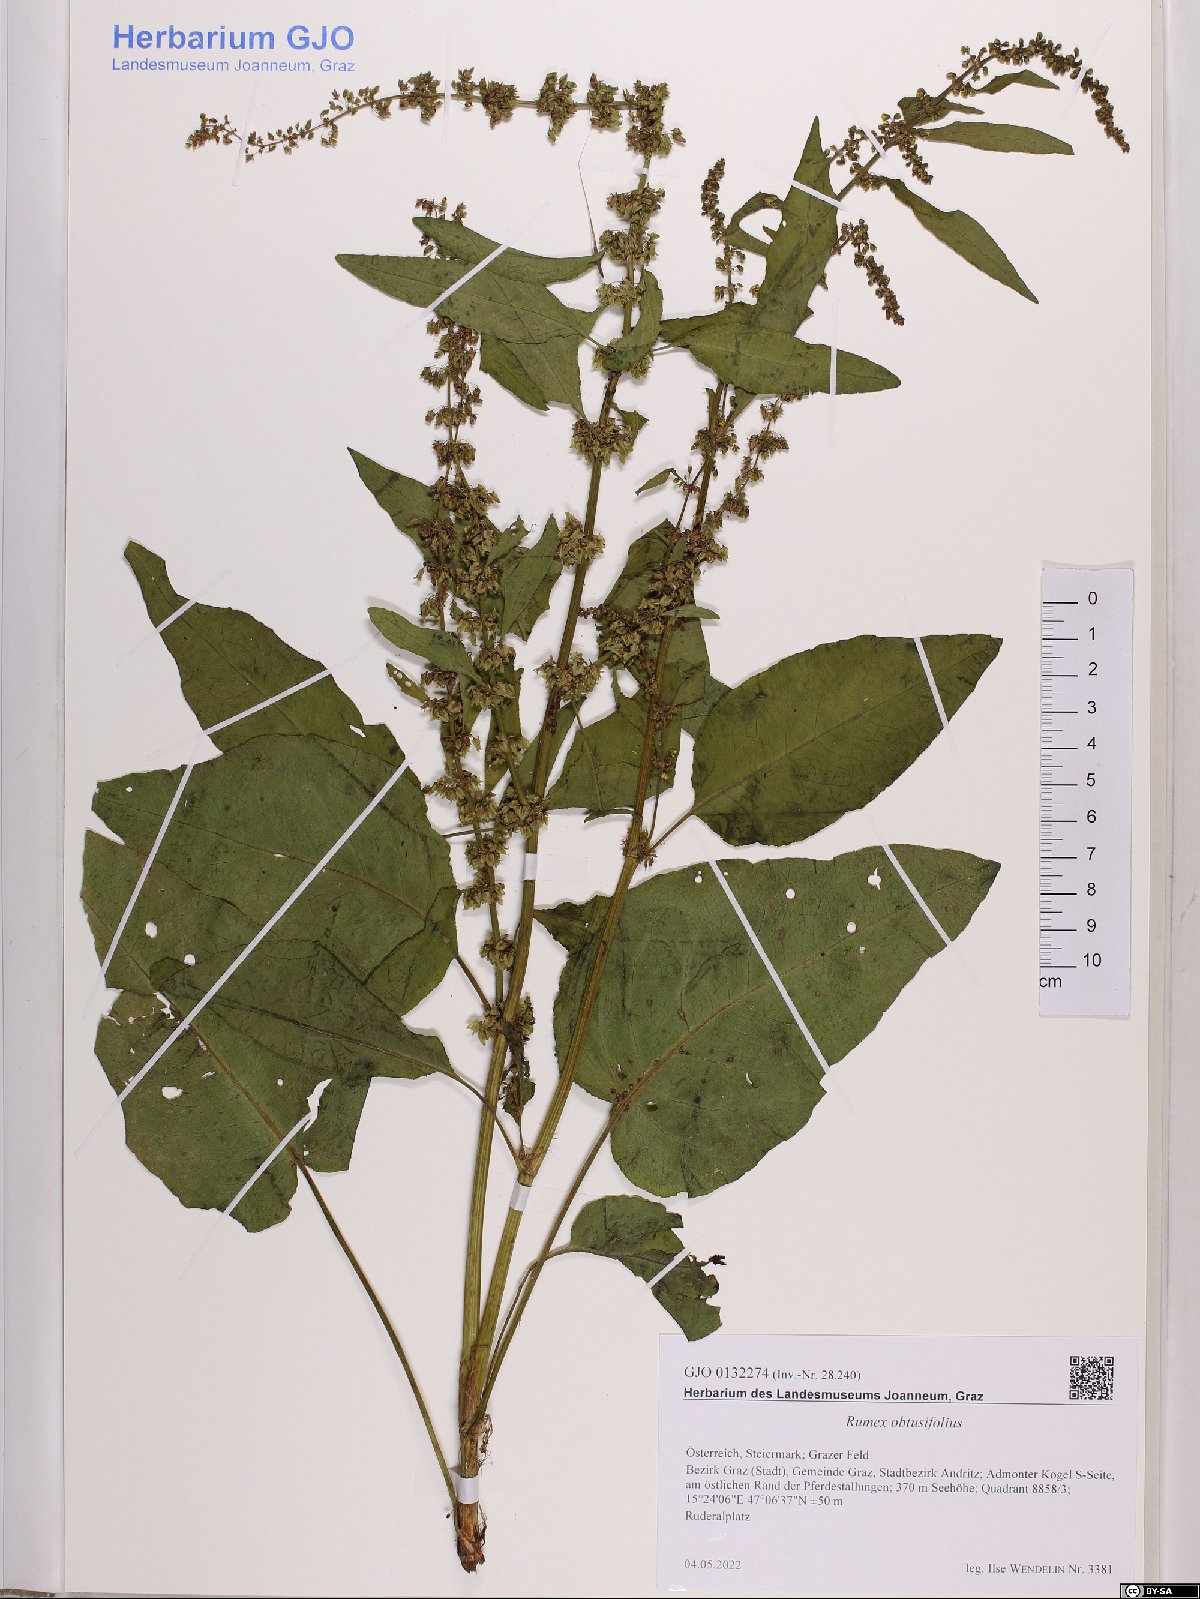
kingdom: Plantae
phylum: Tracheophyta
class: Magnoliopsida
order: Caryophyllales
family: Polygonaceae
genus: Rumex
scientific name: Rumex obtusifolius
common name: Bitter dock
